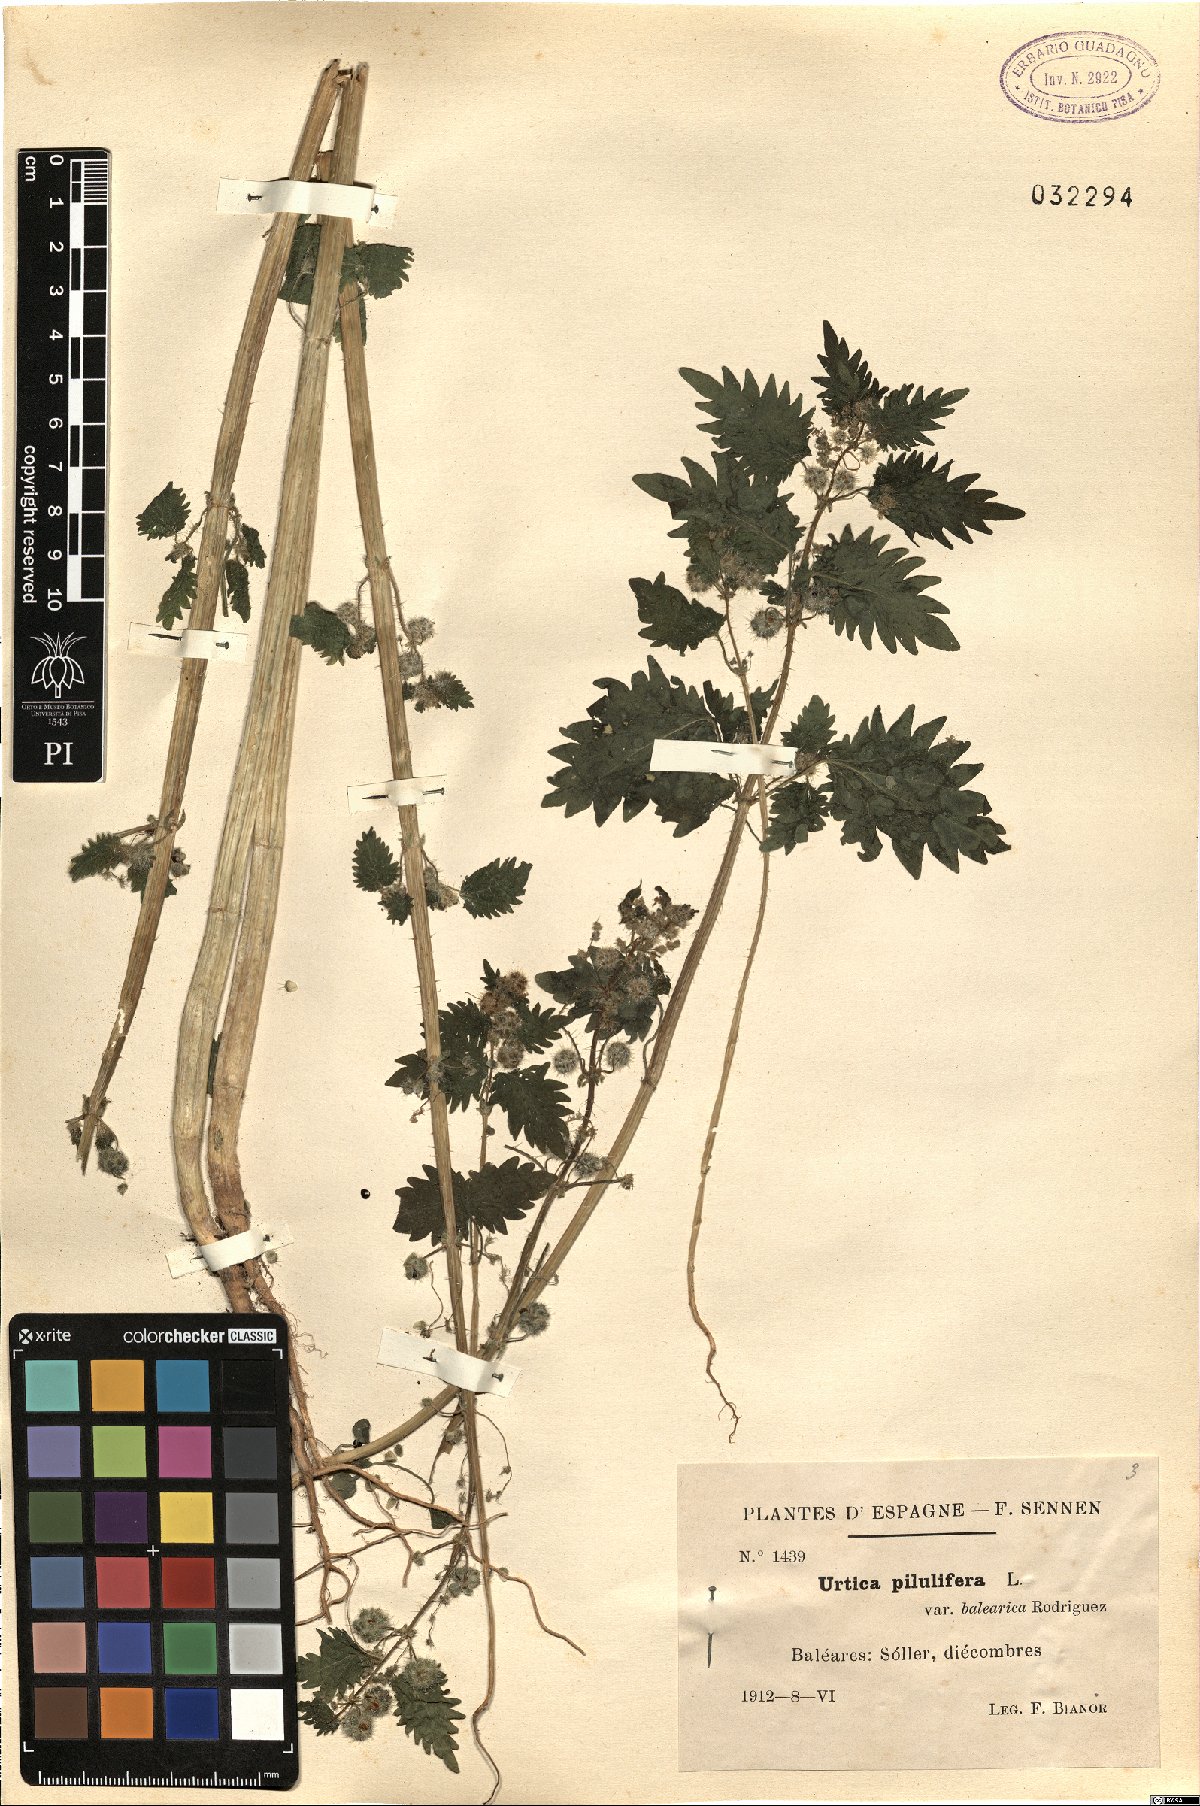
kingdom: Plantae
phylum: Tracheophyta
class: Magnoliopsida
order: Rosales
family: Urticaceae
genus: Urtica
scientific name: Urtica pilulifera
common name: Roman nettle
